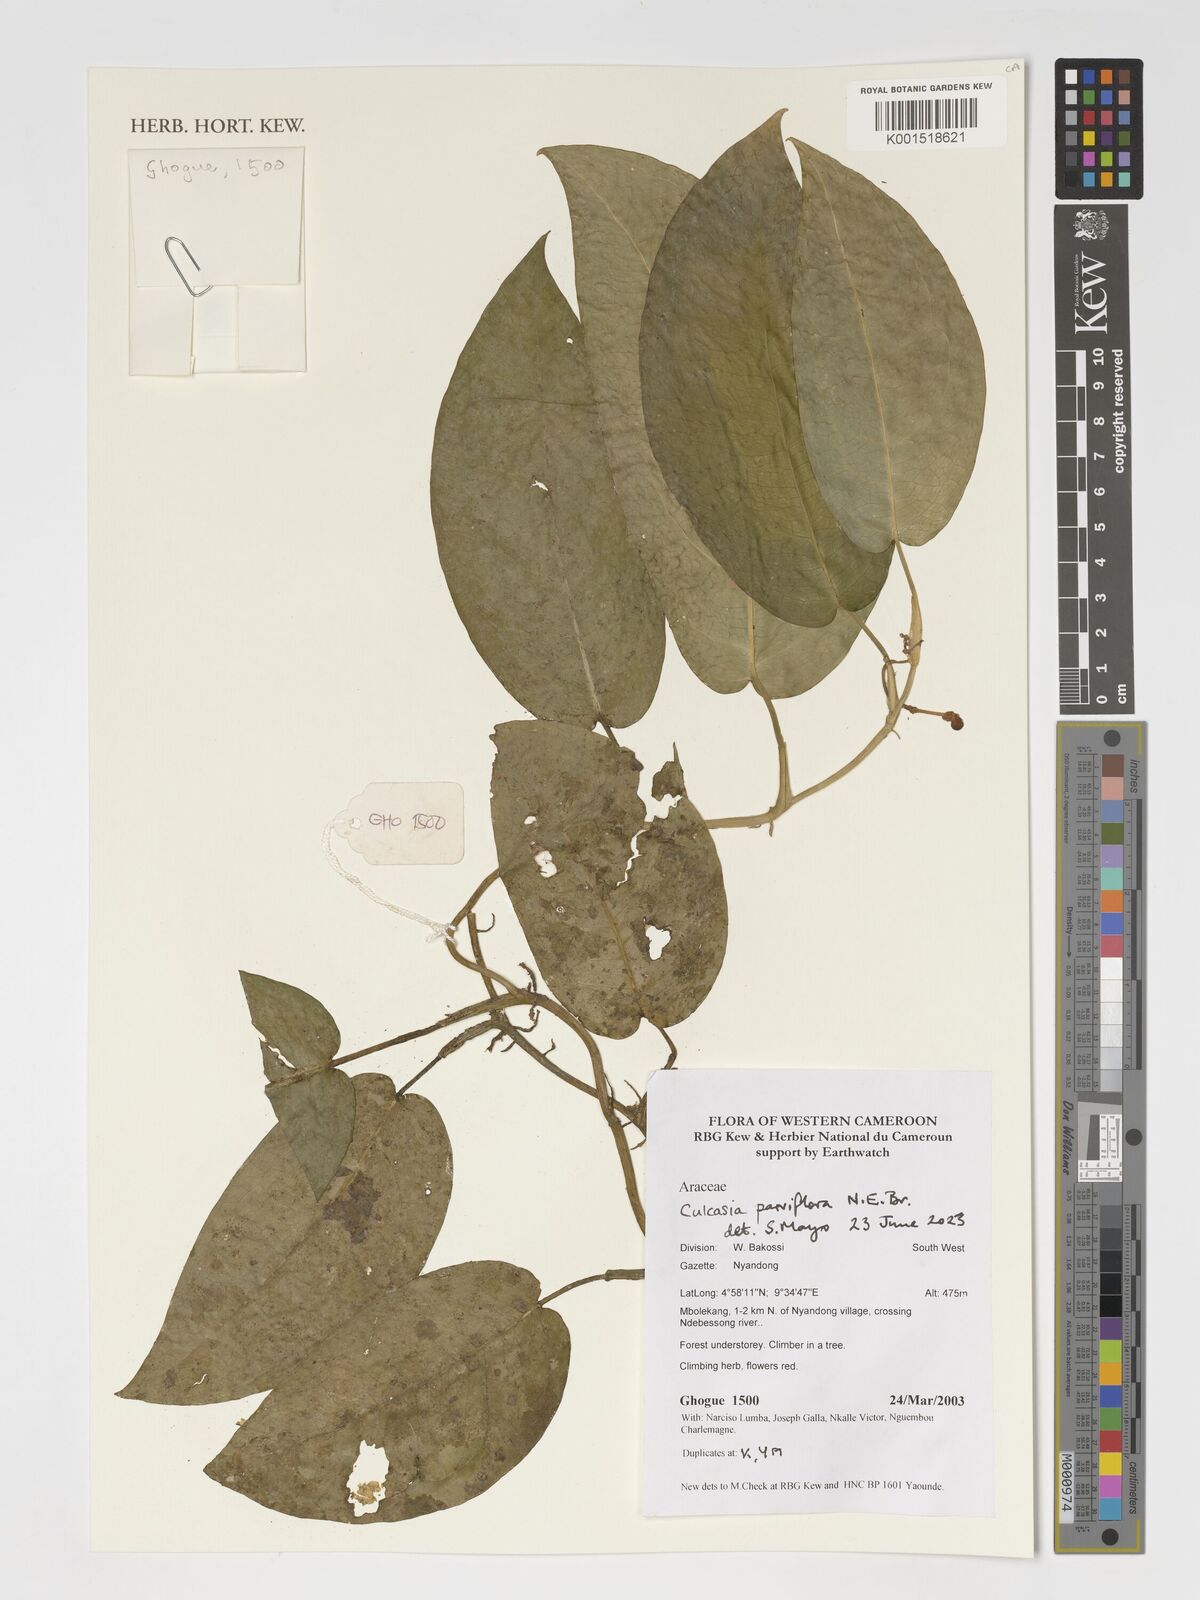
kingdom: Plantae
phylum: Tracheophyta
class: Liliopsida
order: Alismatales
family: Araceae
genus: Culcasia
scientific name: Culcasia parviflora
